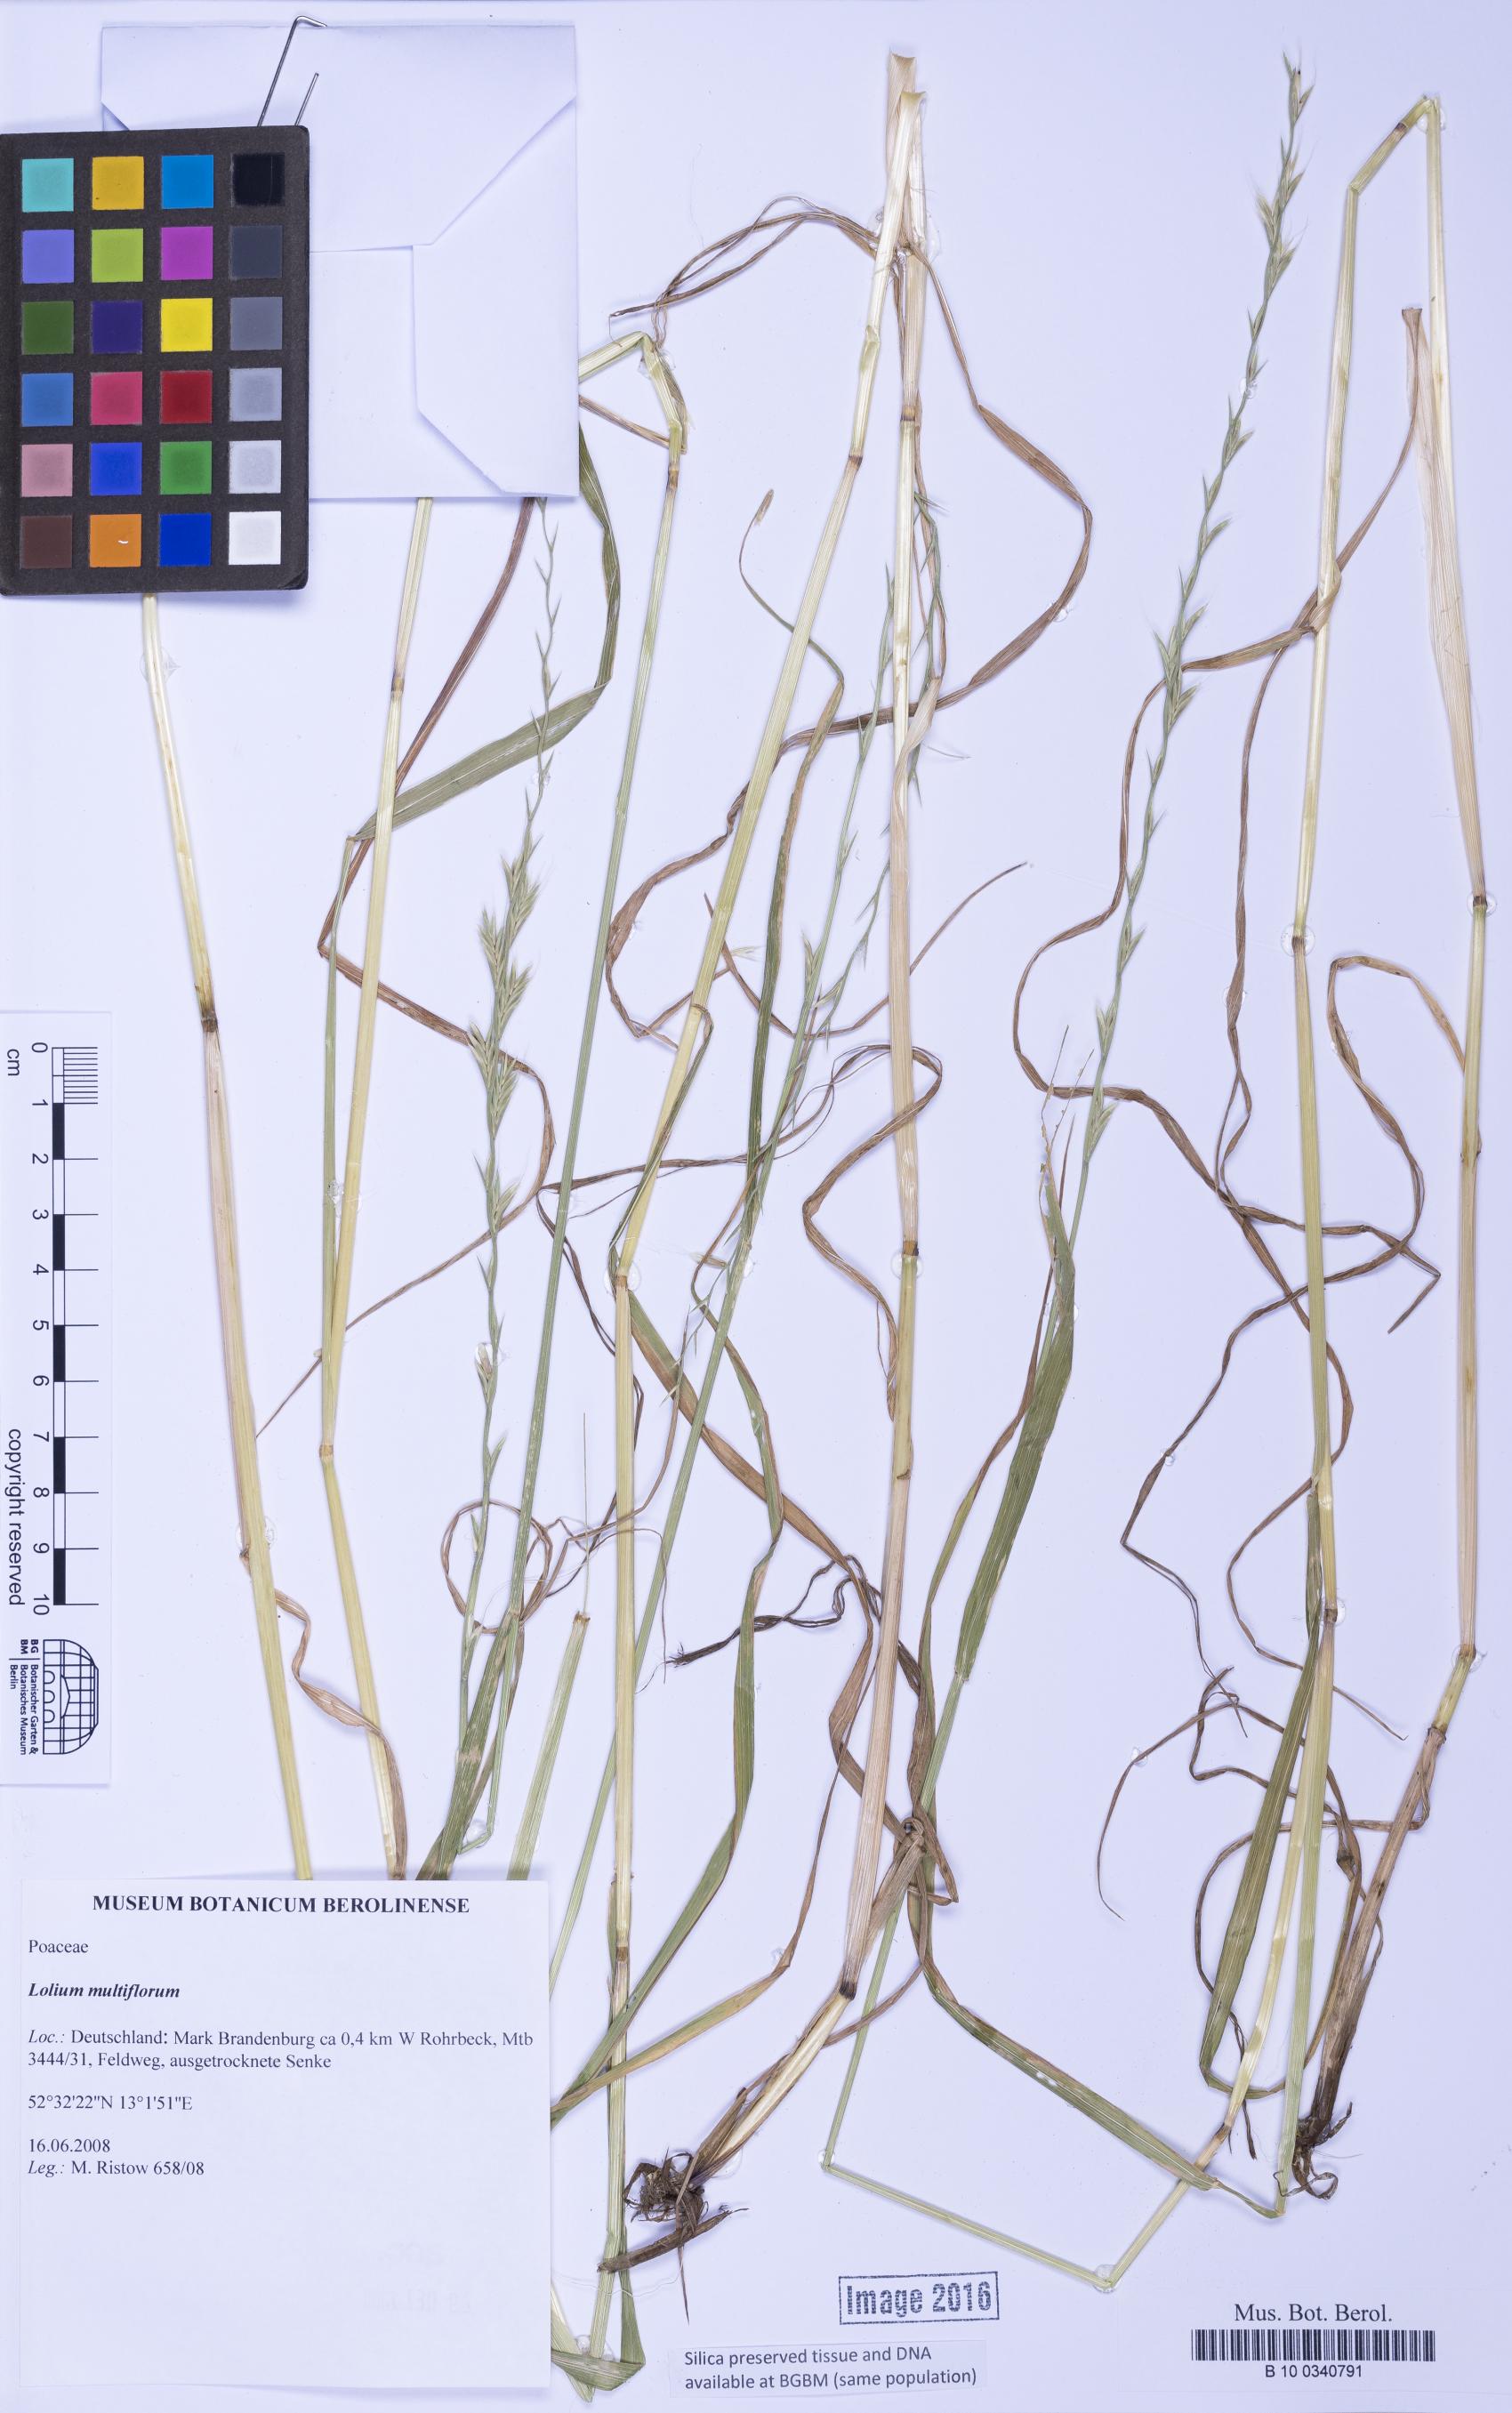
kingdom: Plantae
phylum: Tracheophyta
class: Liliopsida
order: Poales
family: Poaceae
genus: Lolium
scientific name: Lolium multiflorum
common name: Annual ryegrass
